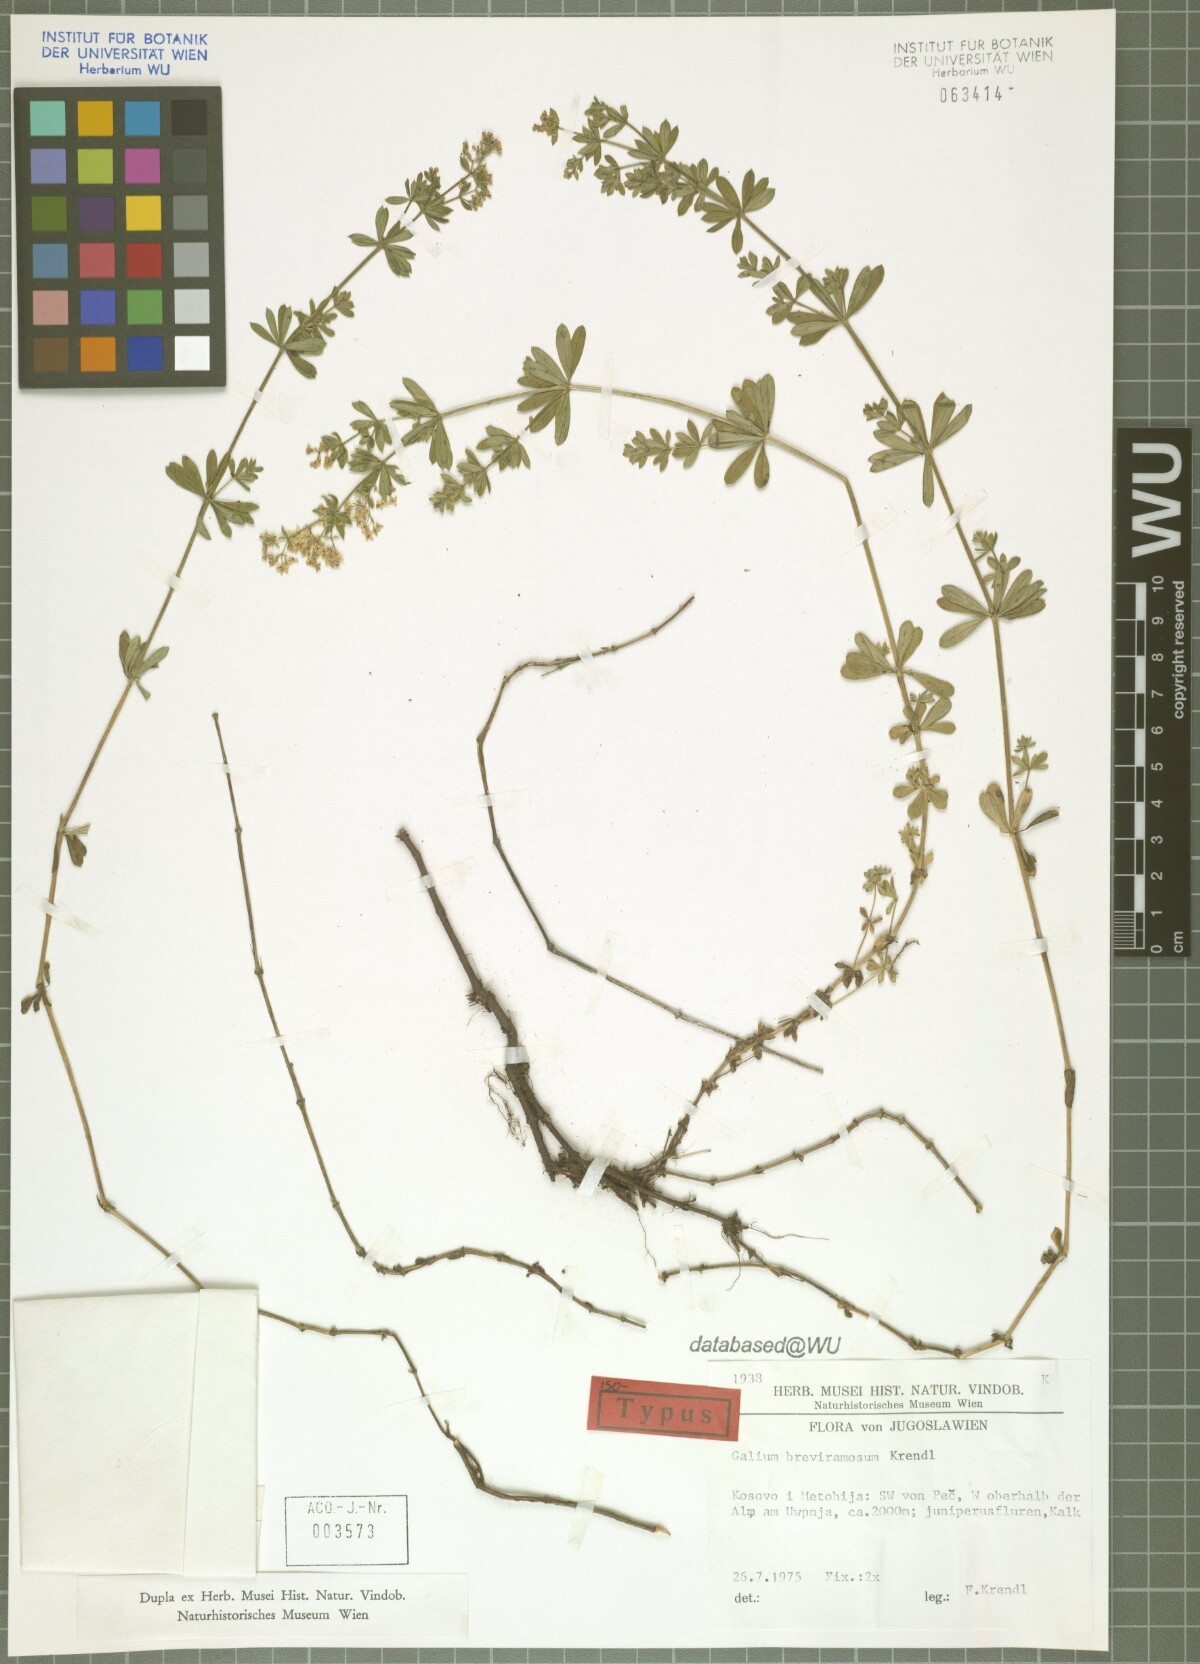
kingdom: Plantae
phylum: Tracheophyta
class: Magnoliopsida
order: Gentianales
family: Rubiaceae
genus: Galium
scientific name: Galium breviramosum
